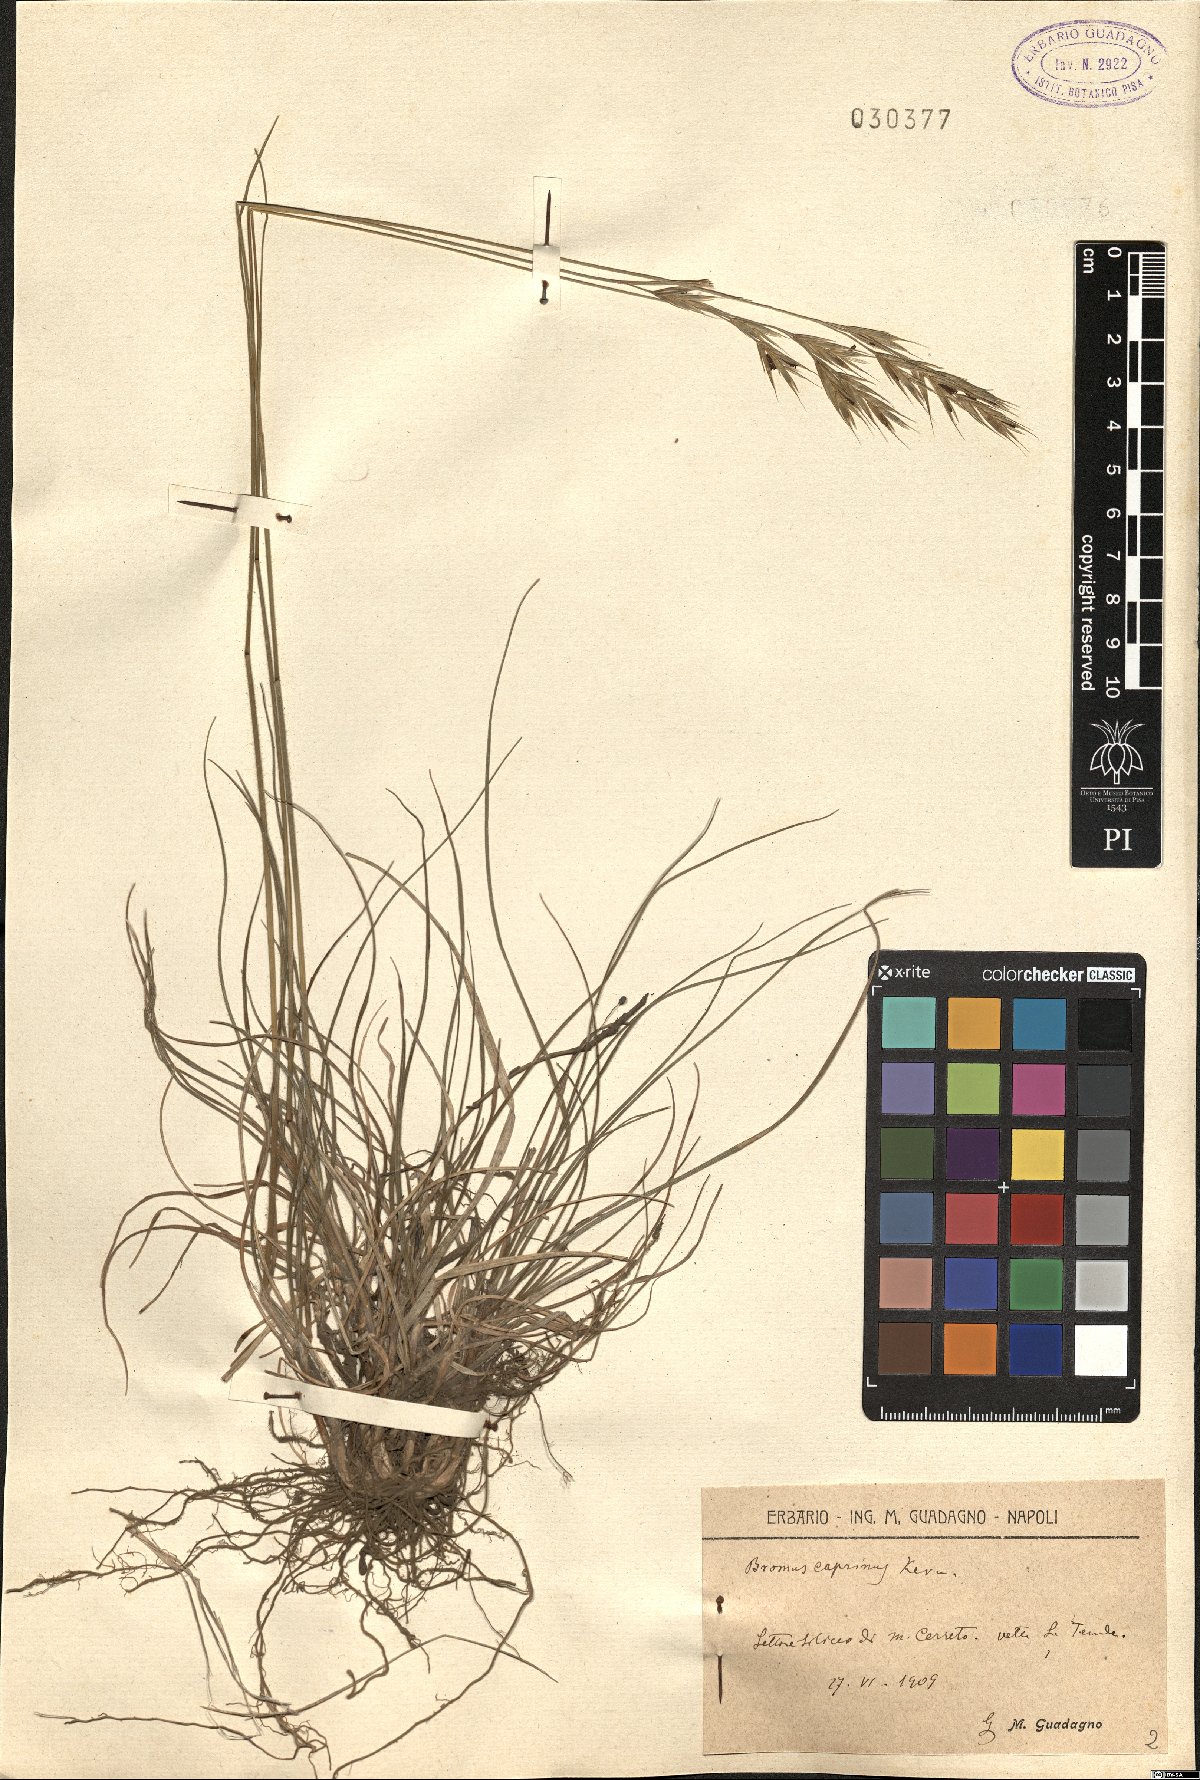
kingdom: Plantae
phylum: Tracheophyta
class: Liliopsida
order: Poales
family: Poaceae
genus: Bromus
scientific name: Bromus erectus
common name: Erect brome
